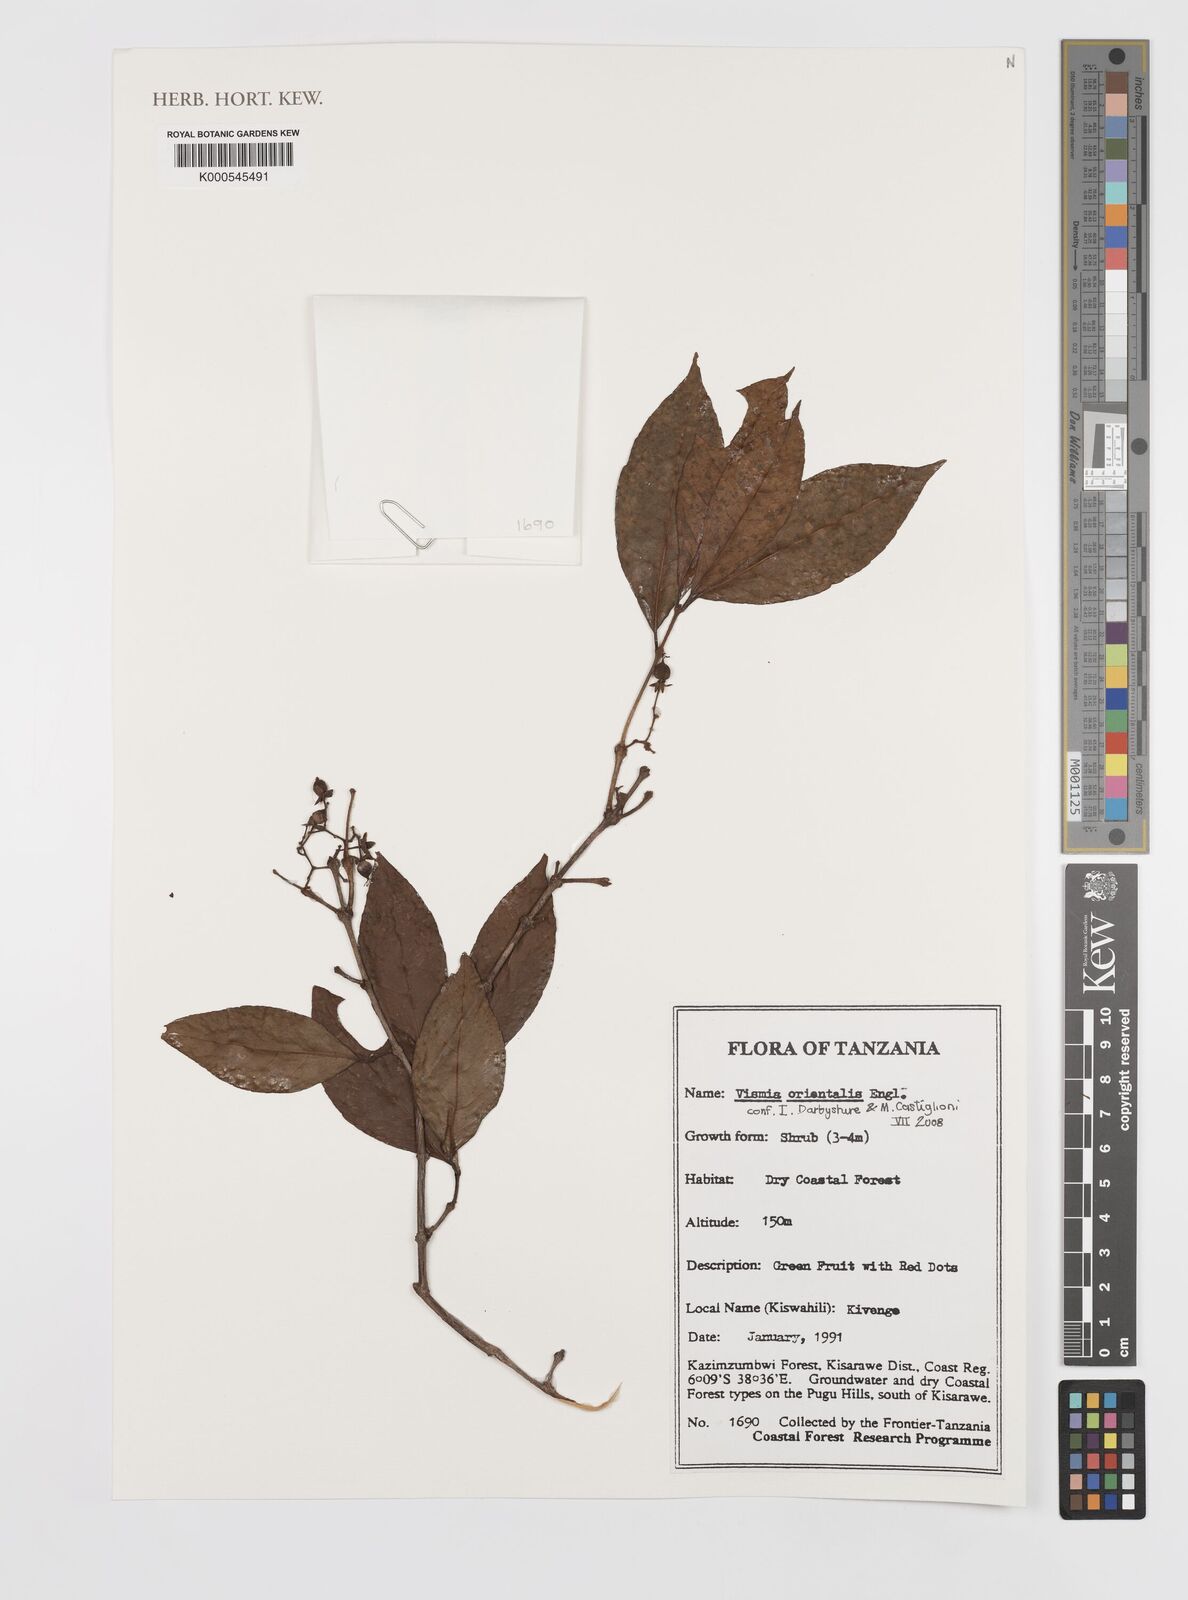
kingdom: Plantae
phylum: Tracheophyta
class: Magnoliopsida
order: Malpighiales
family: Hypericaceae
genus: Psorospermum
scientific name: Psorospermum orientale
